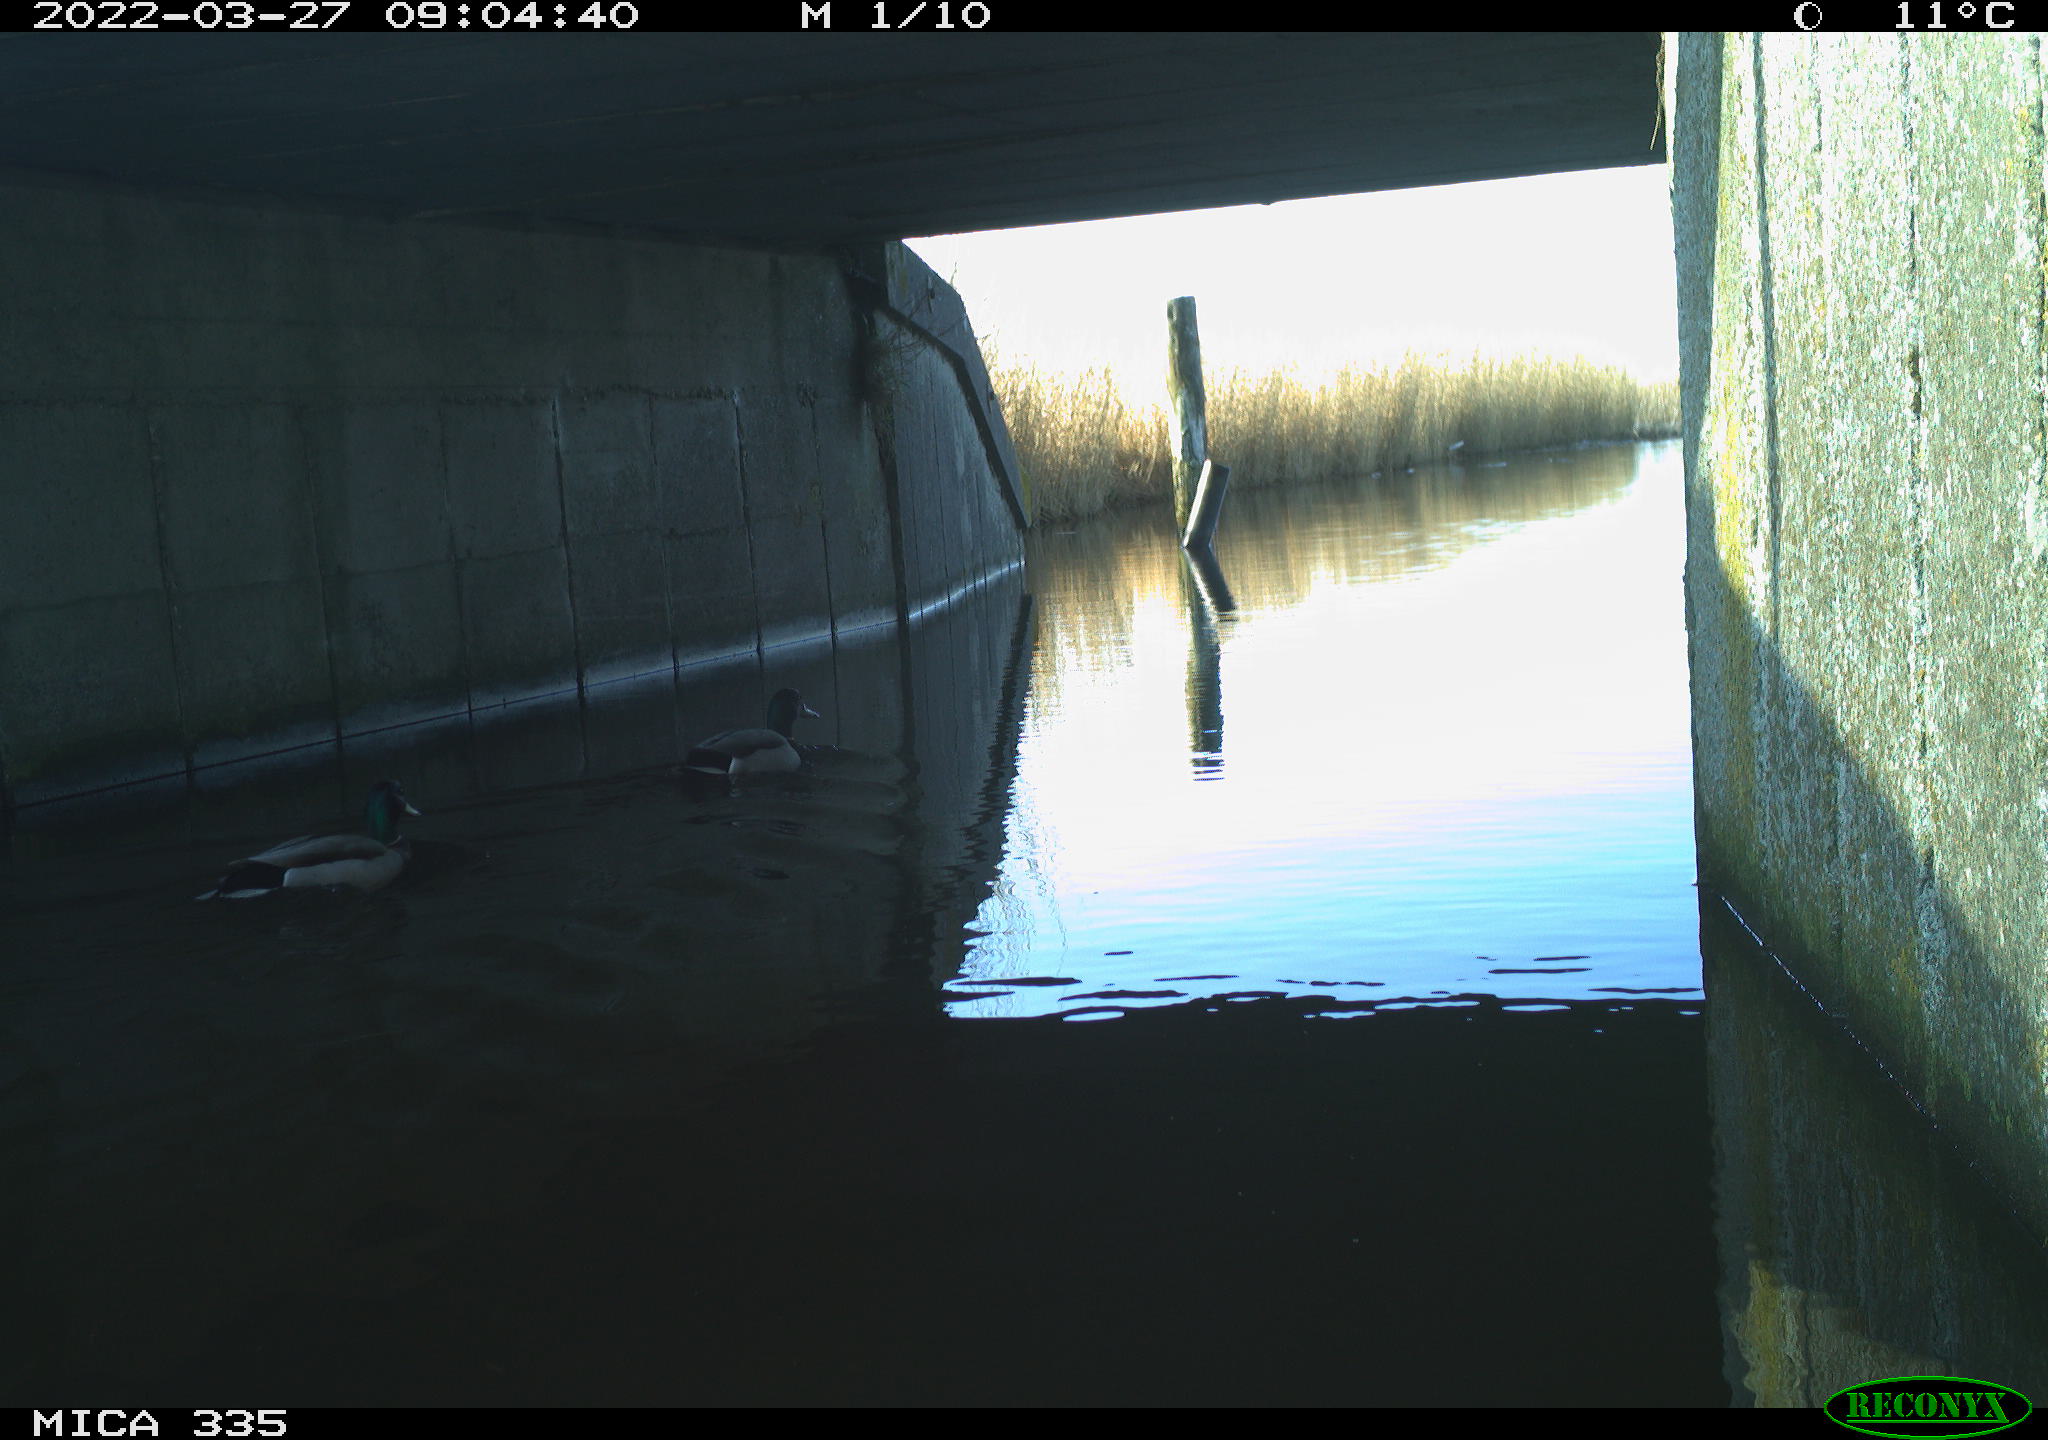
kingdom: Animalia
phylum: Chordata
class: Aves
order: Anseriformes
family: Anatidae
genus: Anas
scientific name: Anas platyrhynchos
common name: Mallard
